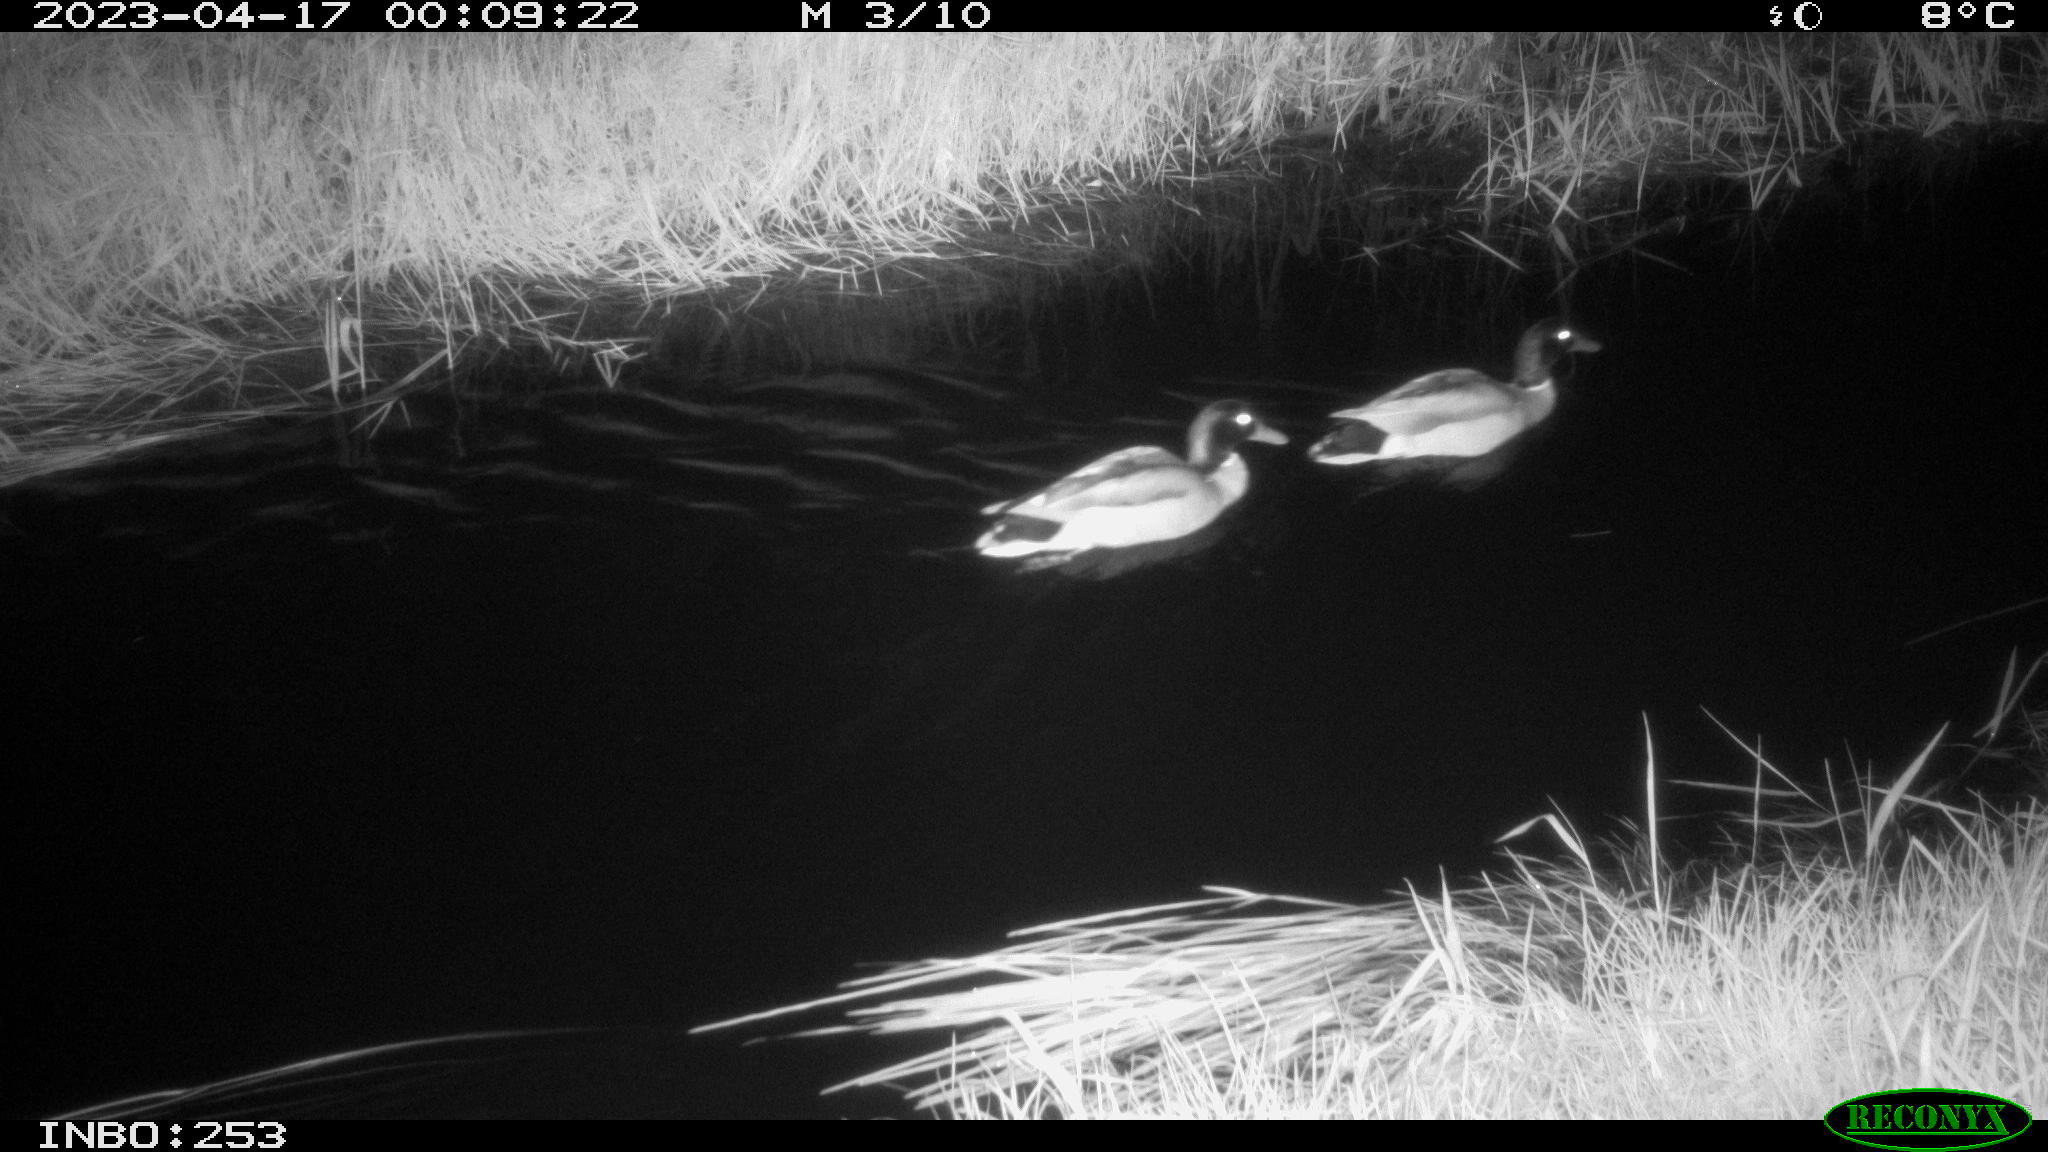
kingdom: Animalia
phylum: Chordata
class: Aves
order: Anseriformes
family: Anatidae
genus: Anas
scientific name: Anas
